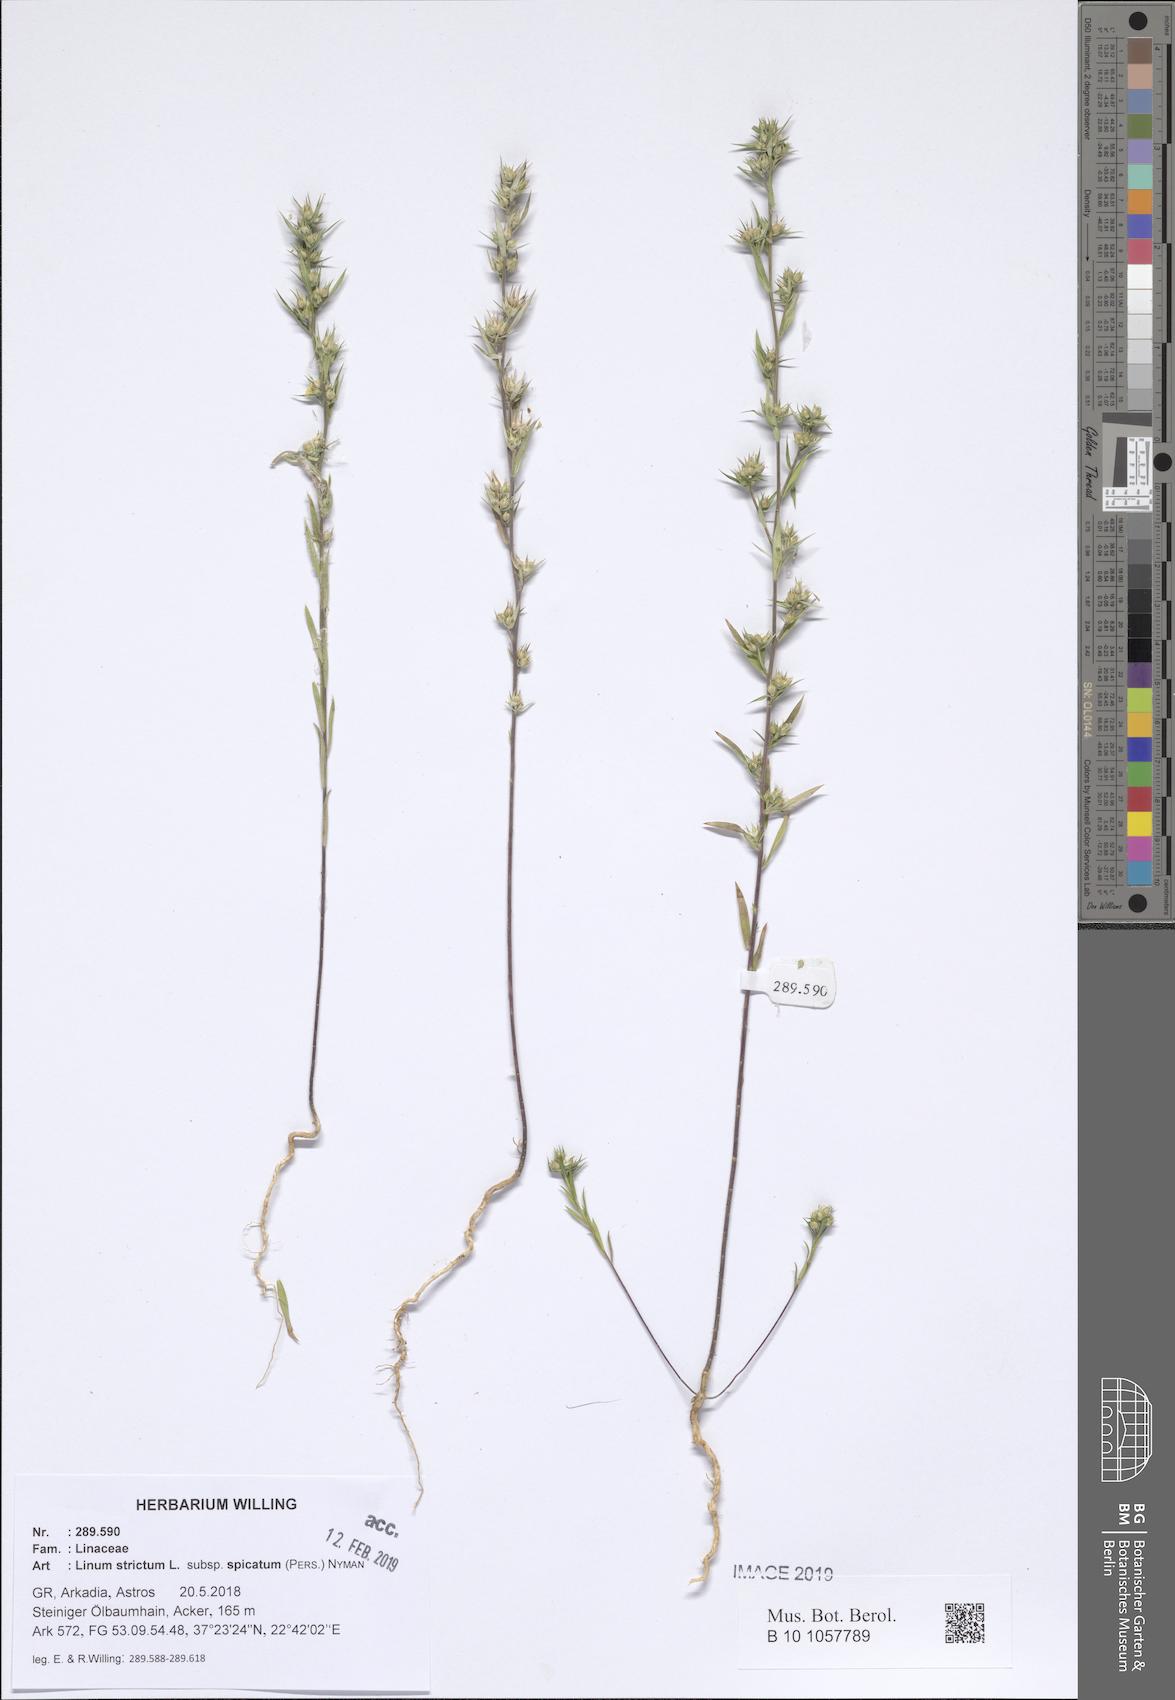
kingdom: Plantae
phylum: Tracheophyta
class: Magnoliopsida
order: Malpighiales
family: Linaceae
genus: Linum
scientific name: Linum strictum
